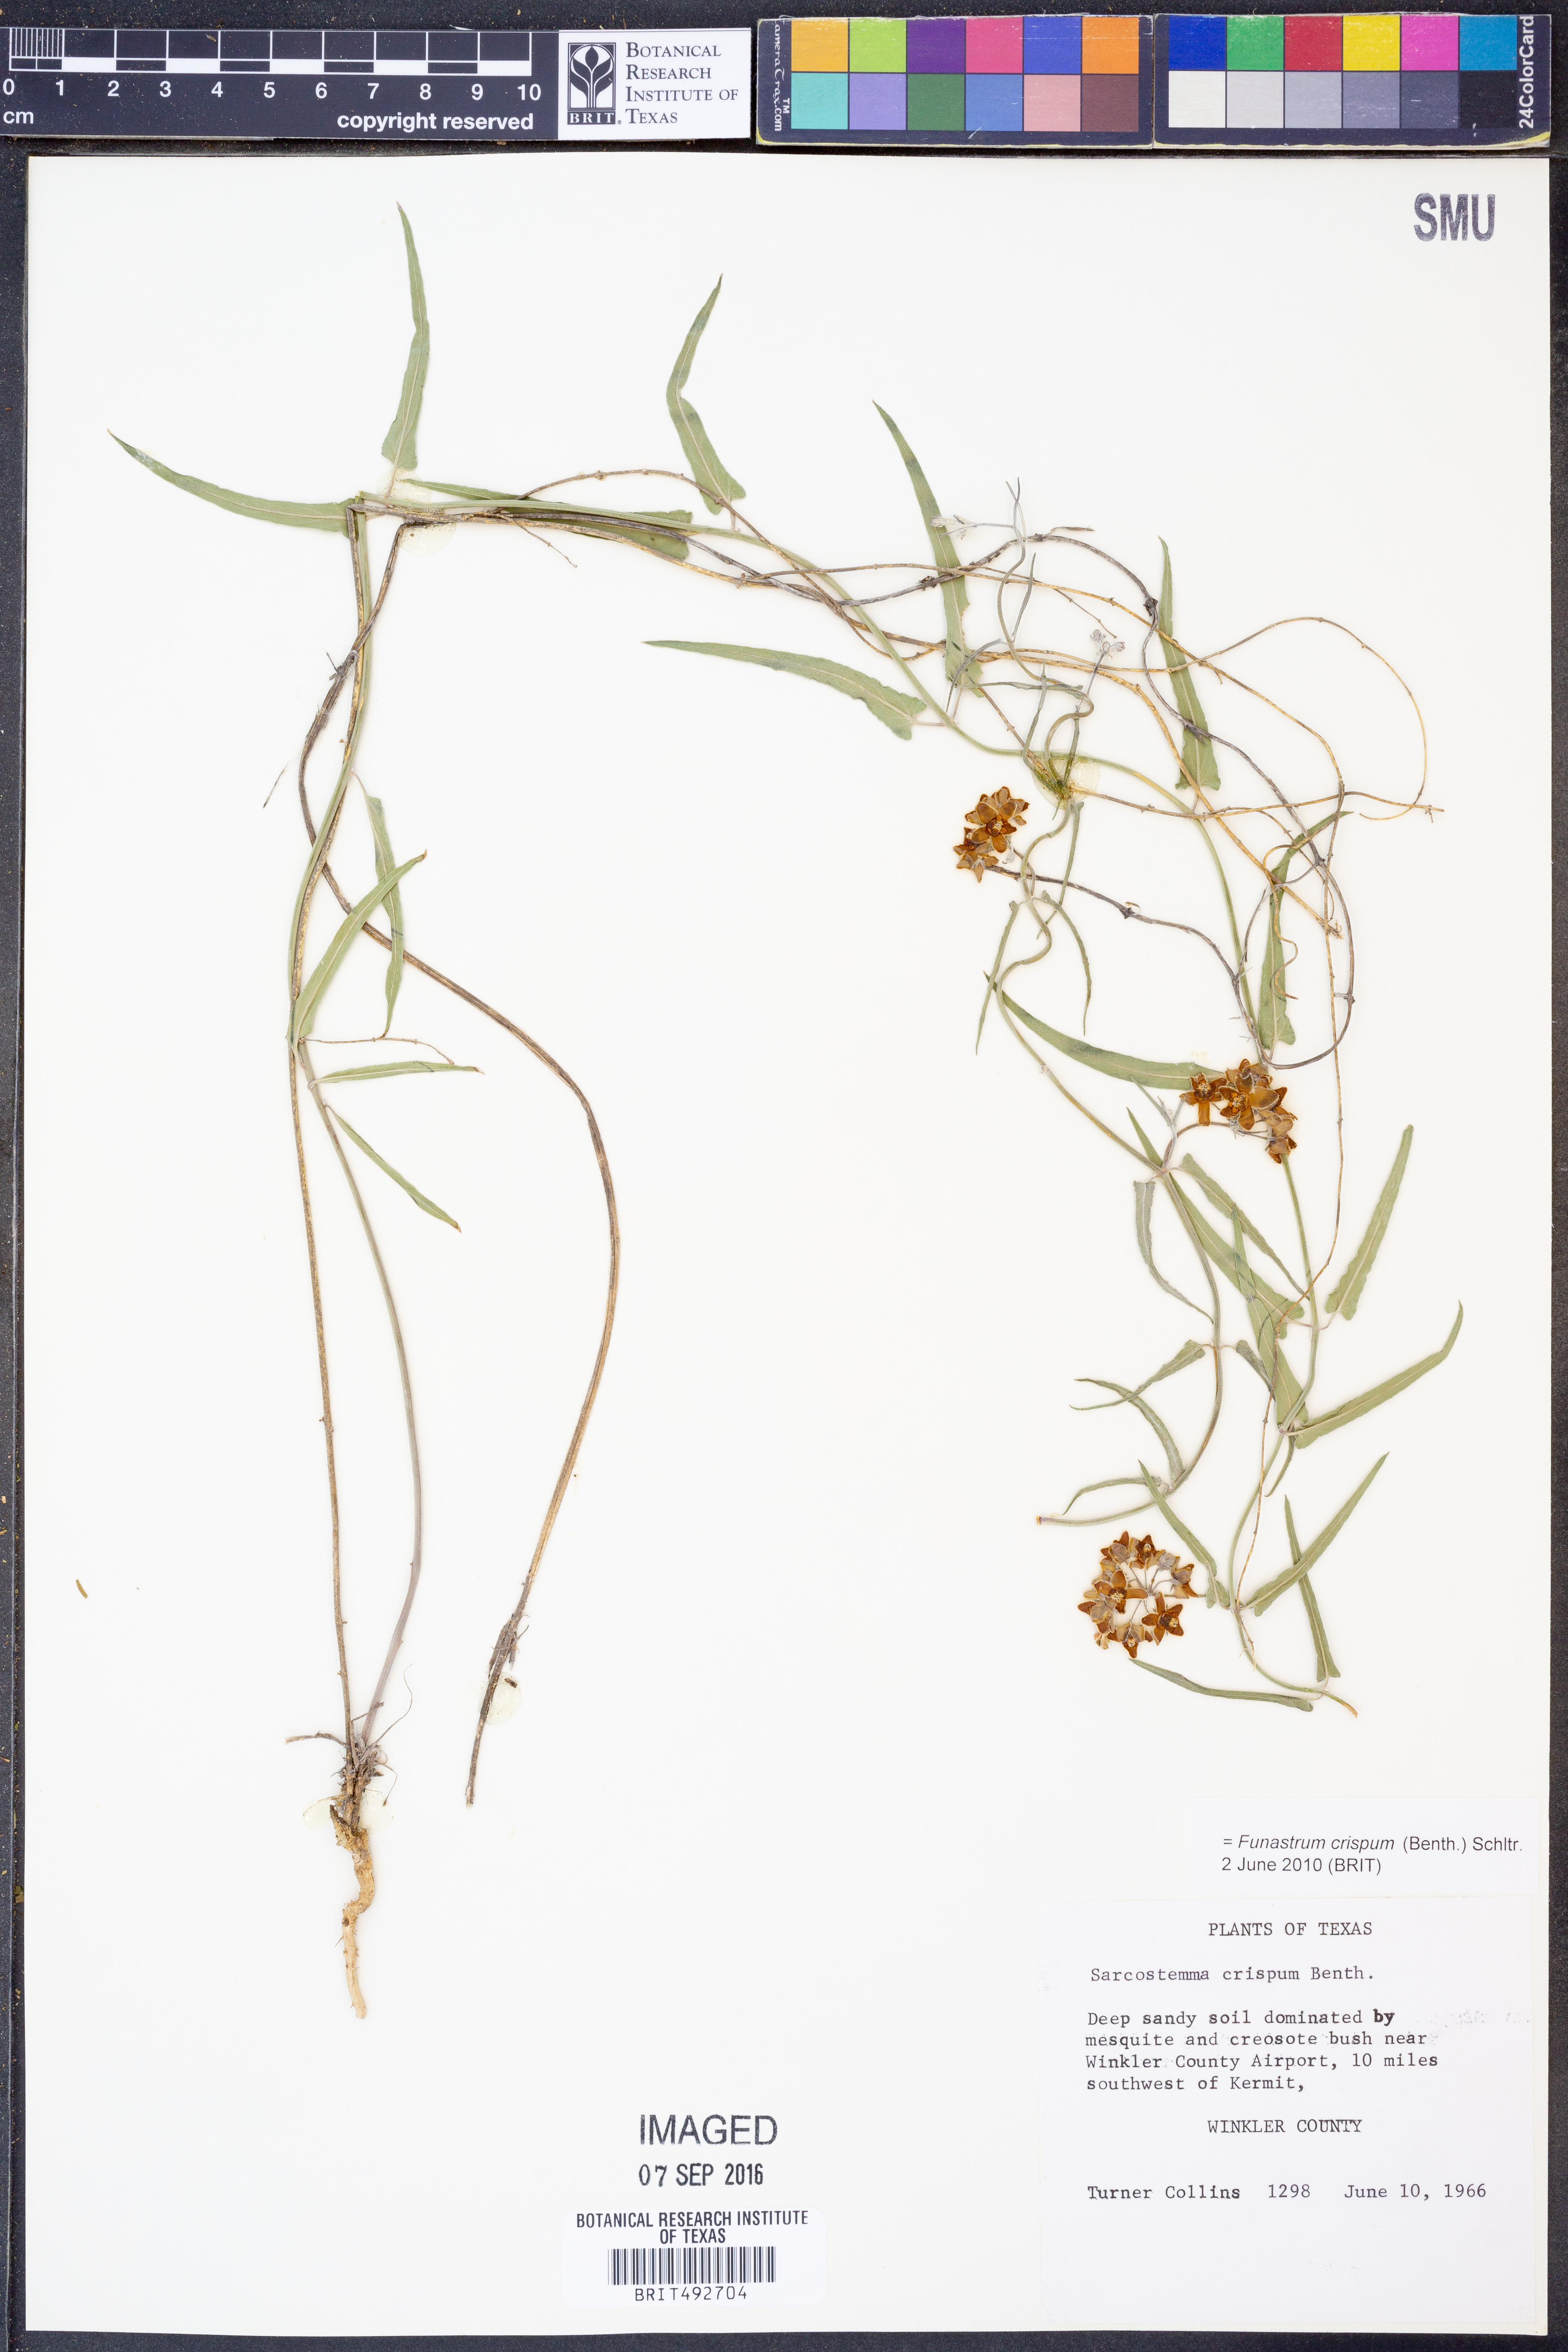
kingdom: Plantae
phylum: Tracheophyta
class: Magnoliopsida
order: Gentianales
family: Apocynaceae
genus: Funastrum
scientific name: Funastrum crispum
